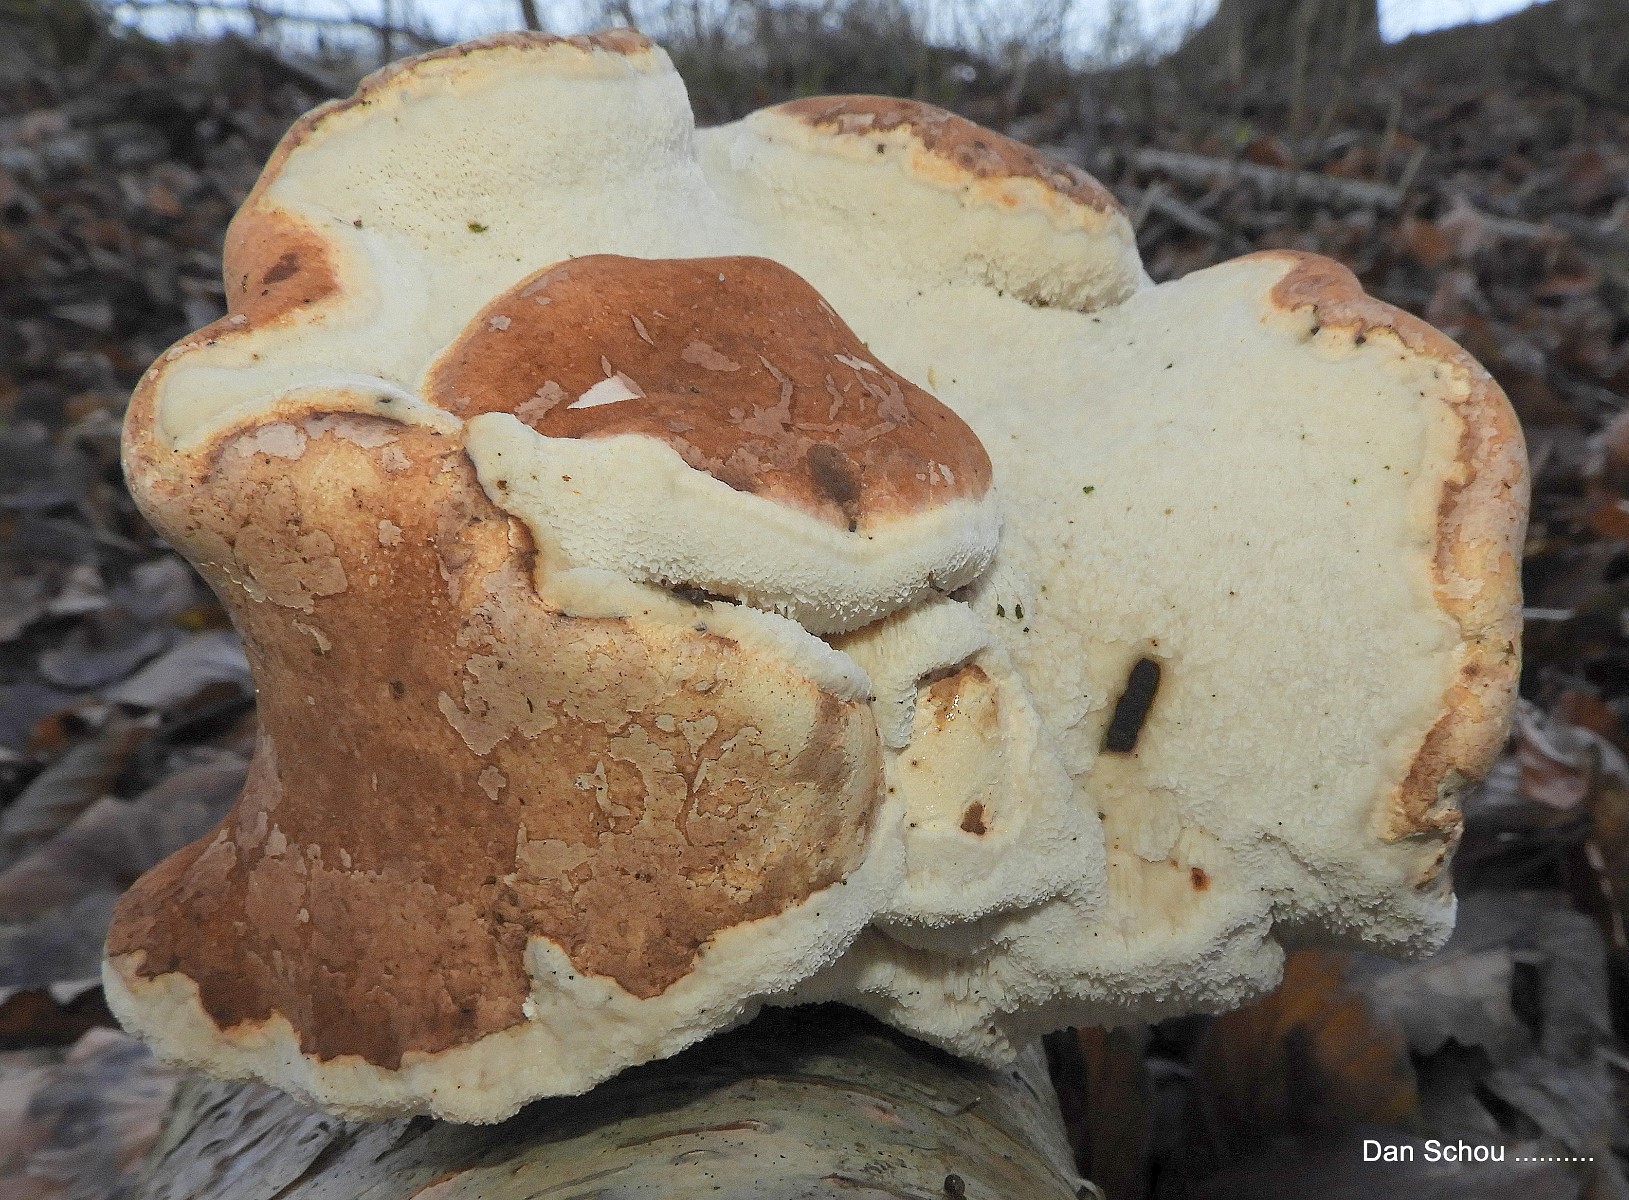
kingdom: Fungi
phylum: Basidiomycota
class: Agaricomycetes
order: Polyporales
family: Fomitopsidaceae
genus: Fomitopsis
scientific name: Fomitopsis betulina
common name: birkeporesvamp
